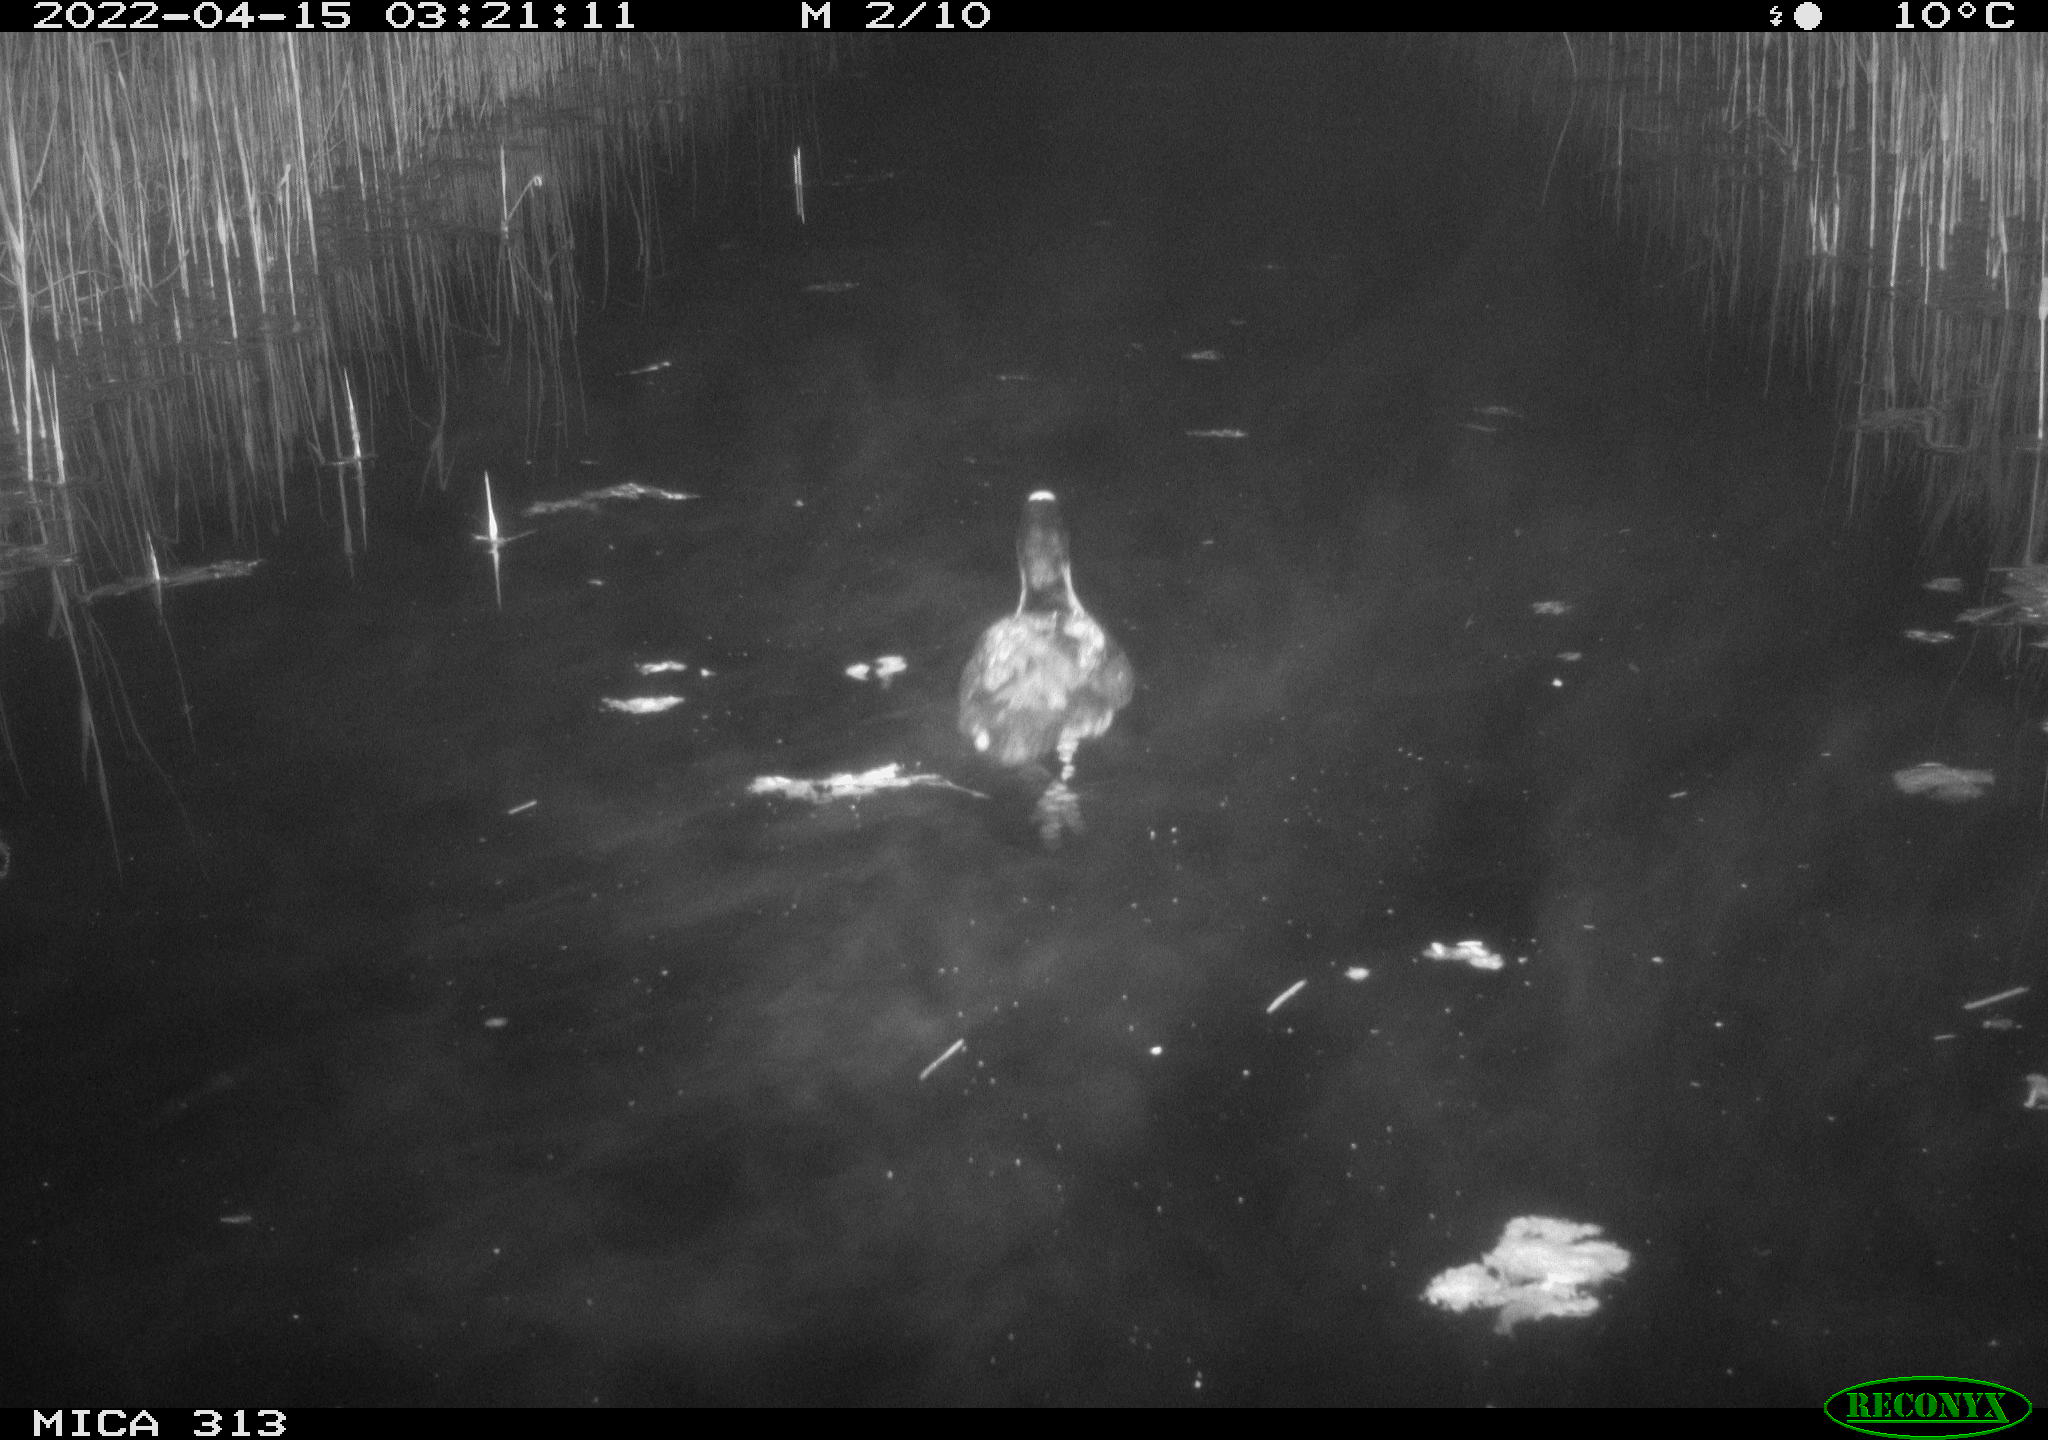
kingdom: Animalia
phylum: Chordata
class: Aves
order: Gruiformes
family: Rallidae
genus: Fulica
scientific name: Fulica atra
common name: Eurasian coot
